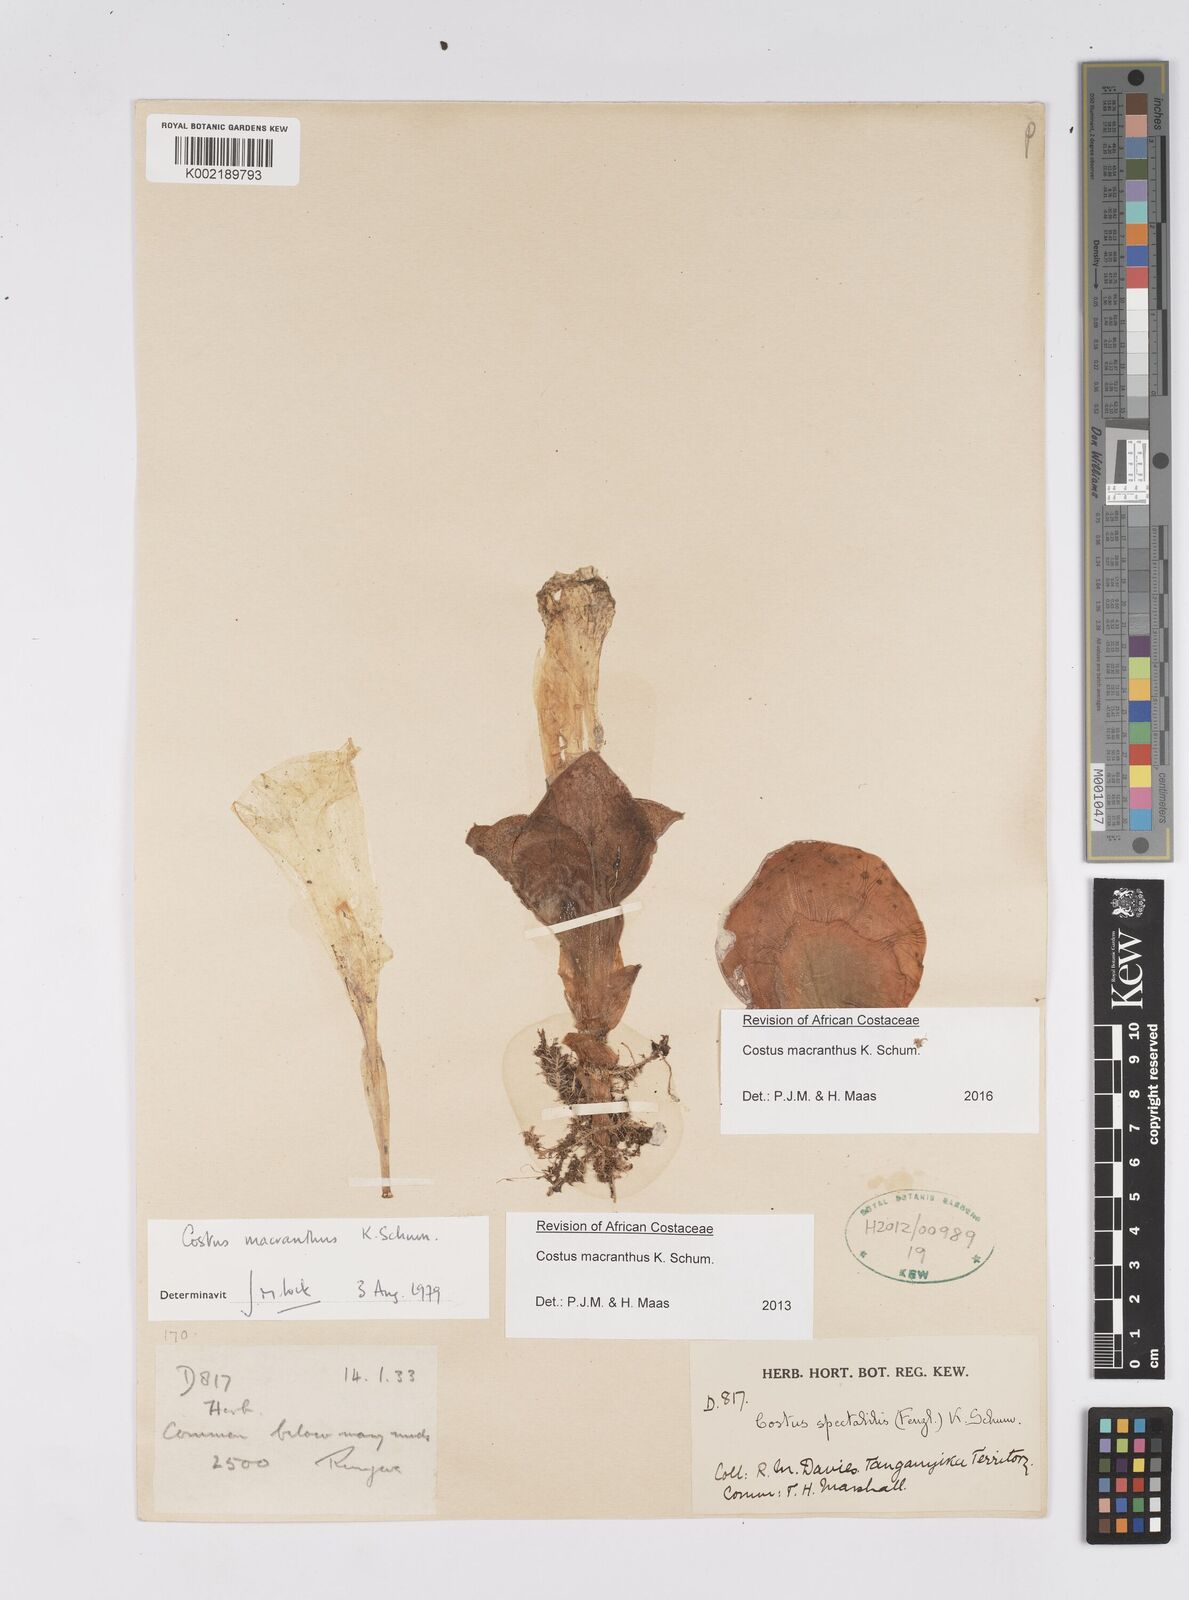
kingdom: Plantae
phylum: Tracheophyta
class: Liliopsida
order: Zingiberales
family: Costaceae
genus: Costus
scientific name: Costus macranthus
